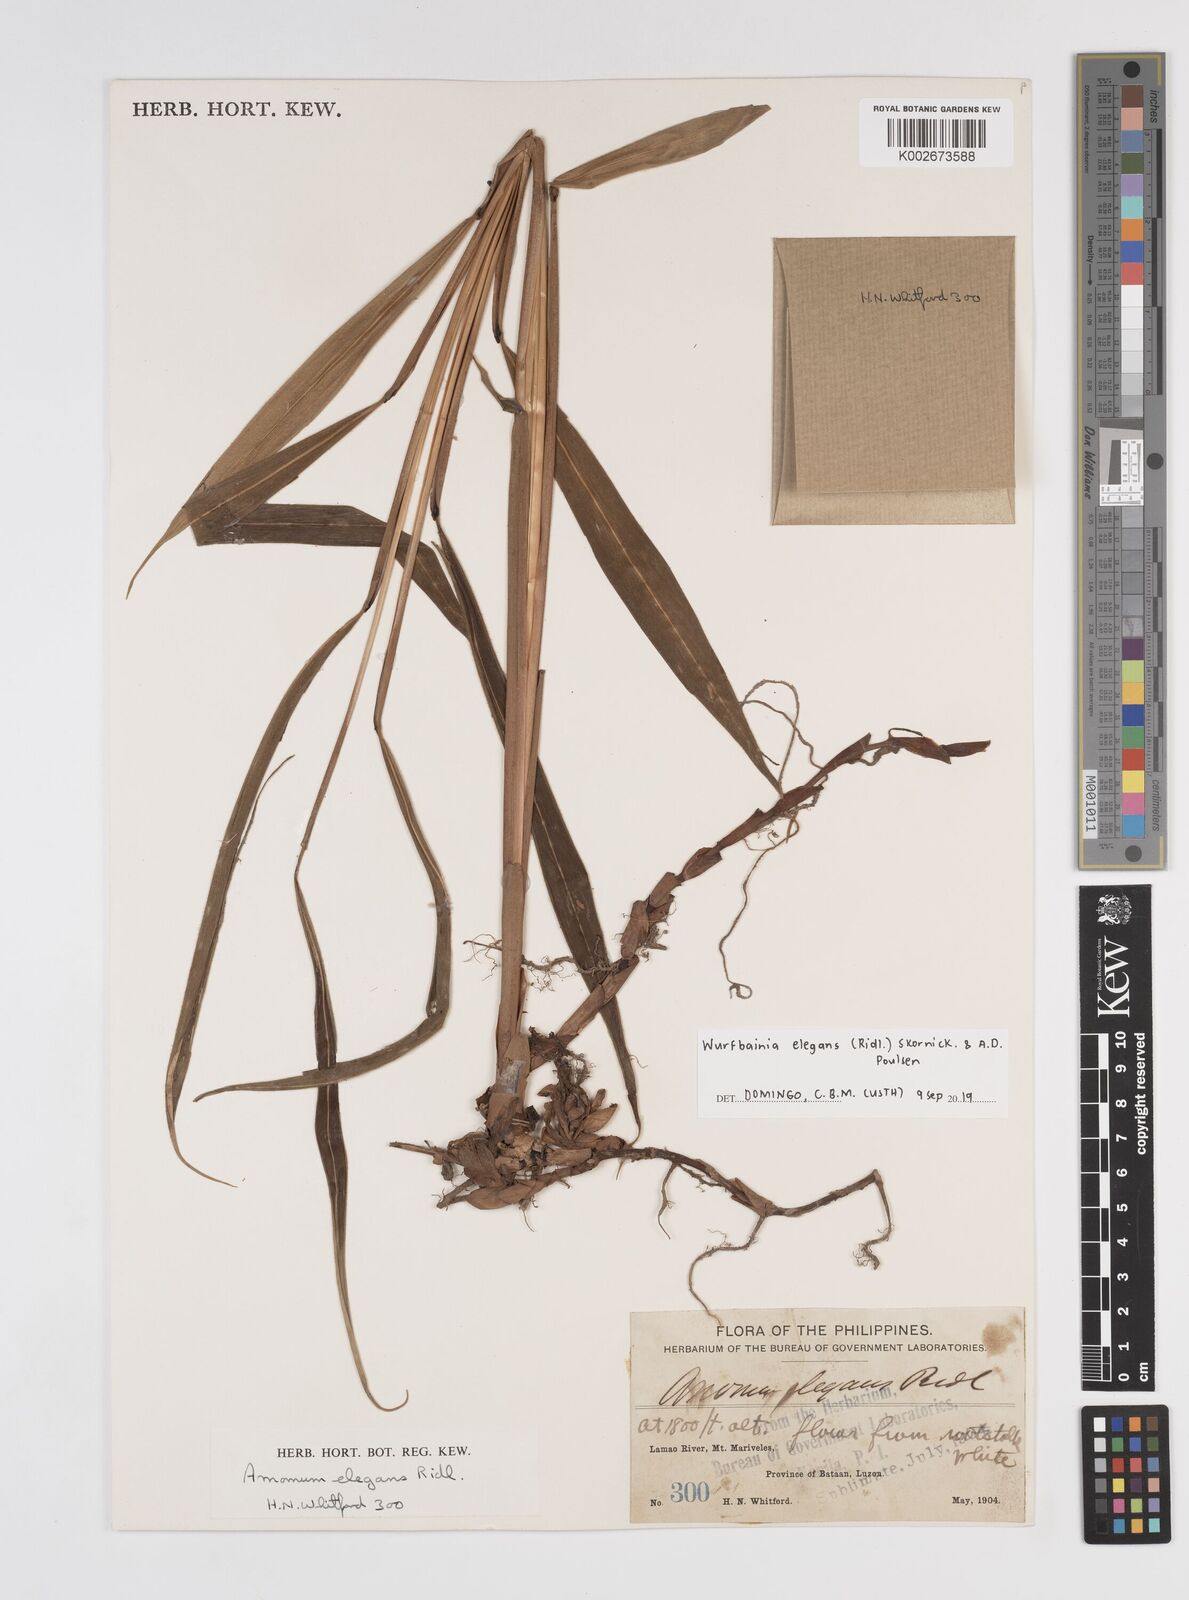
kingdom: Plantae
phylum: Tracheophyta
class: Liliopsida
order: Zingiberales
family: Zingiberaceae
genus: Wurfbainia
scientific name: Wurfbainia elegans
